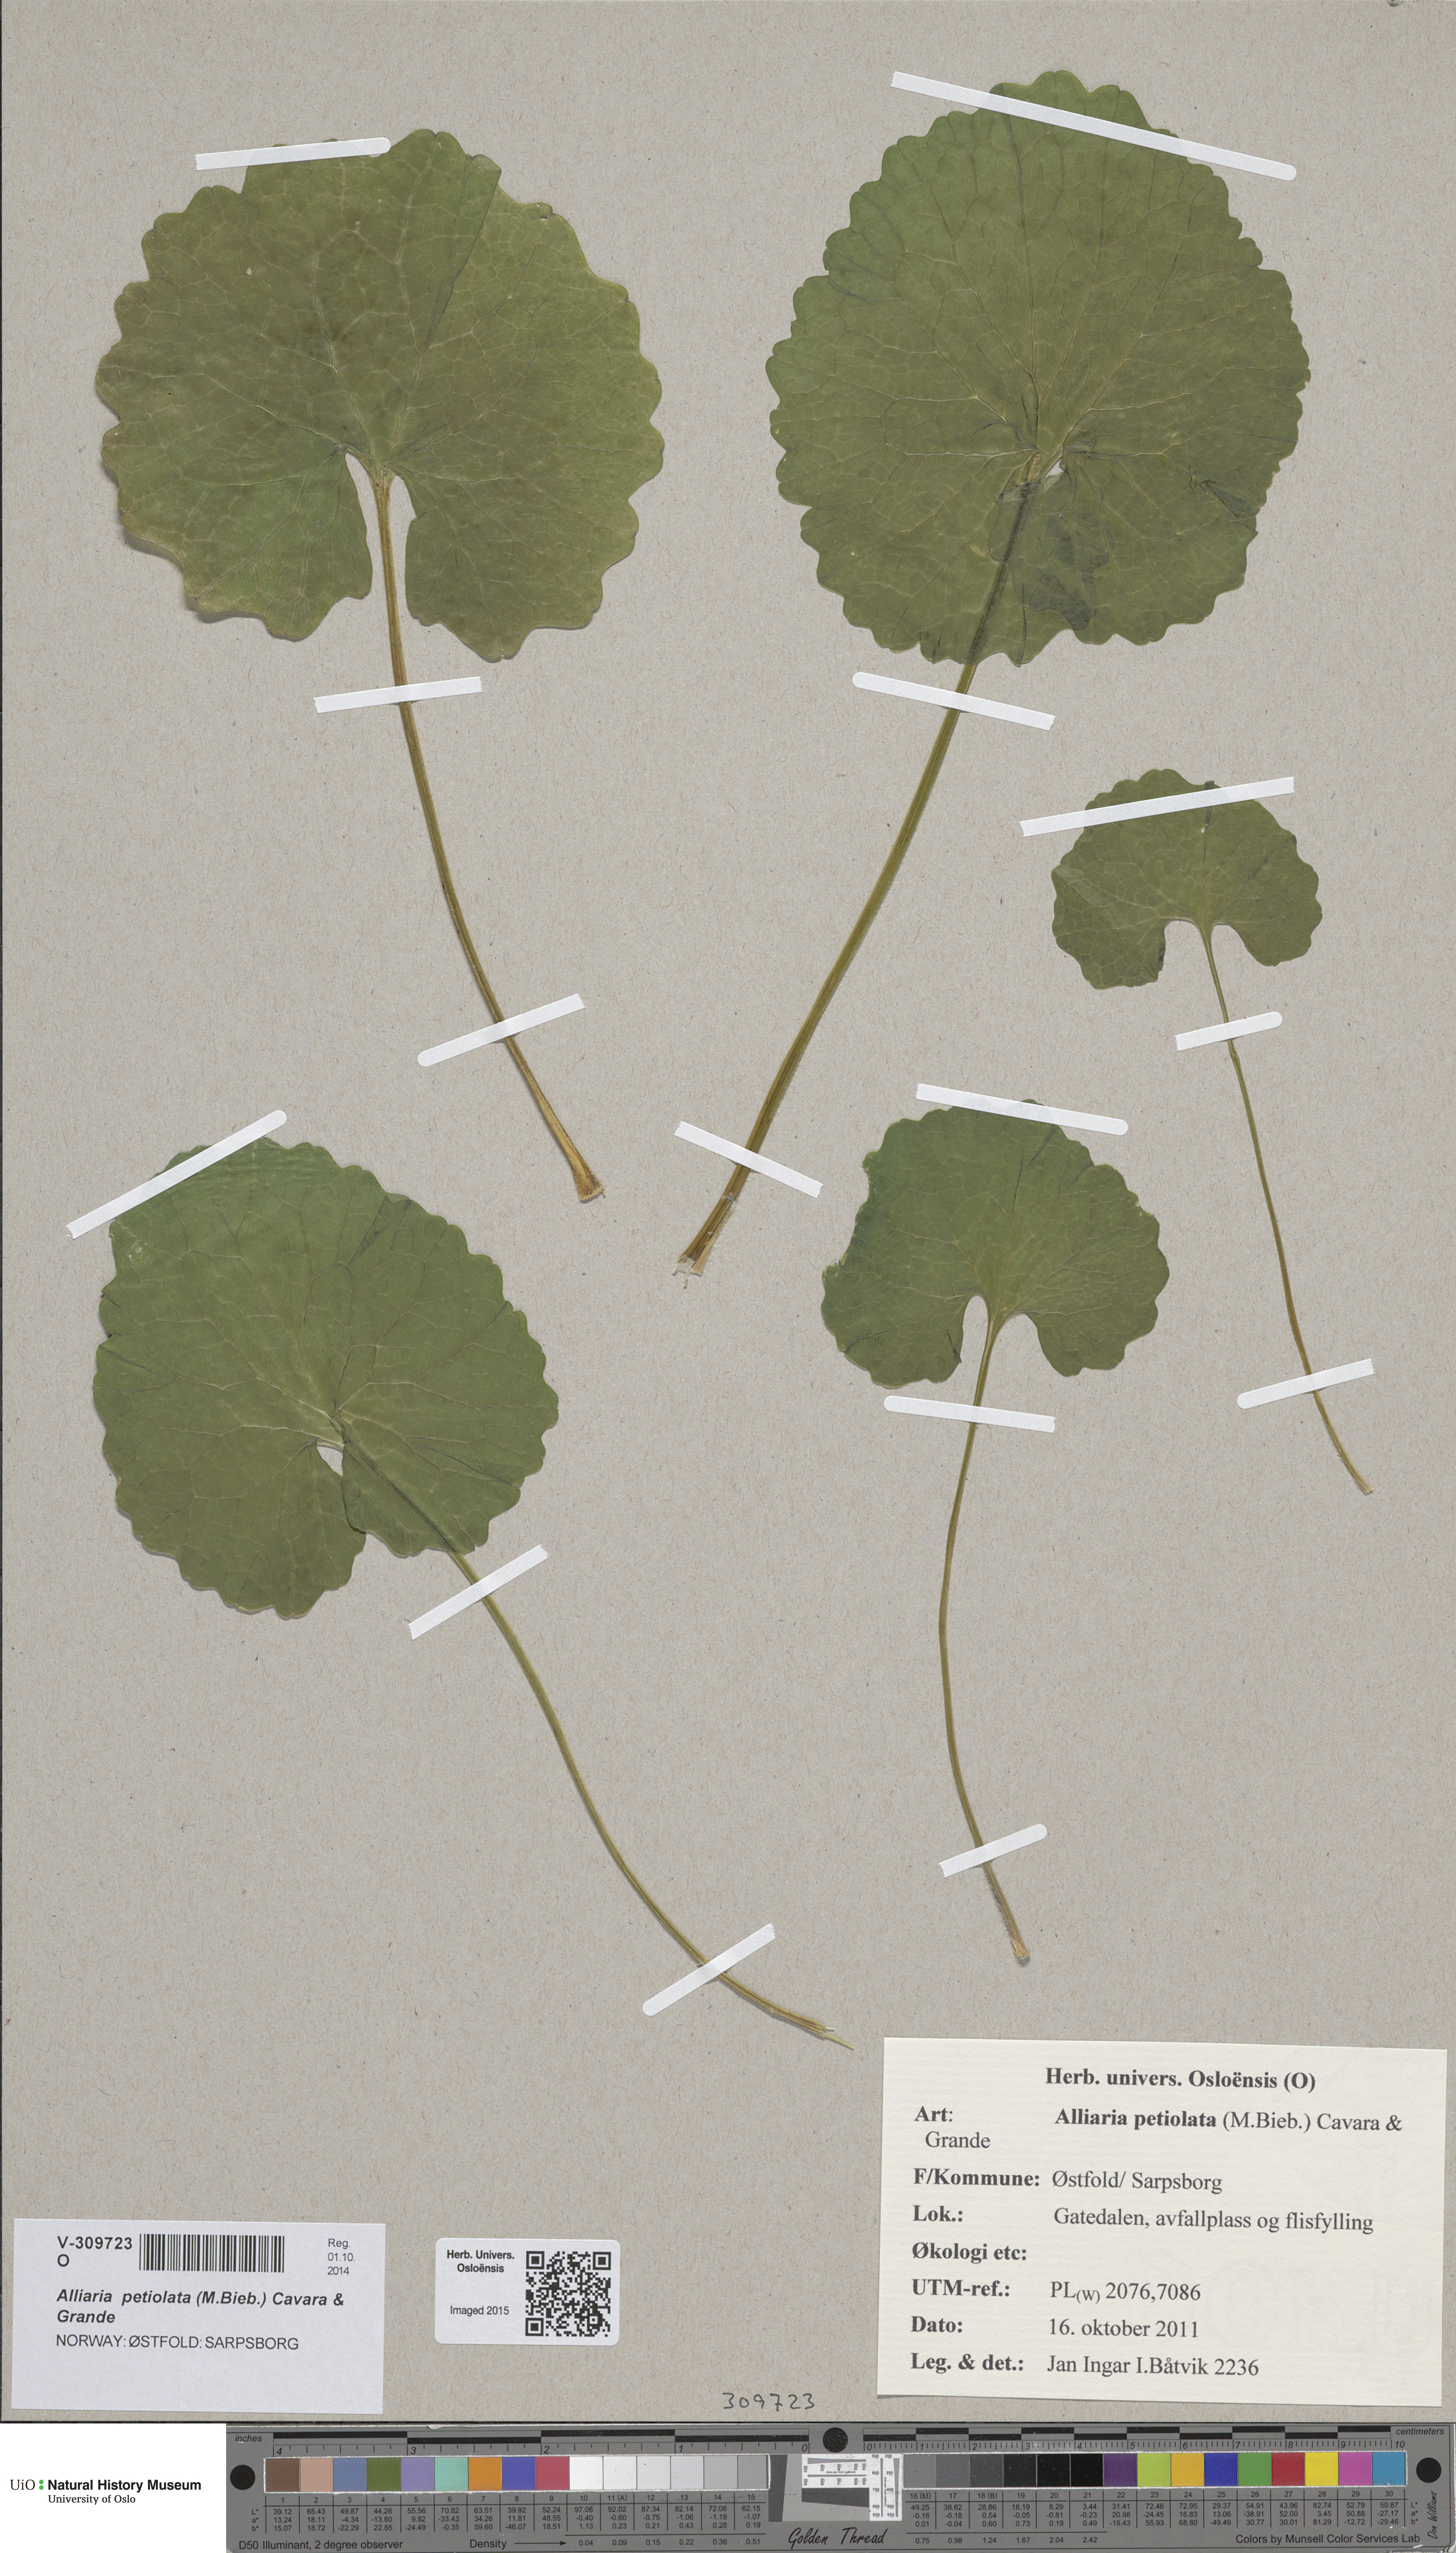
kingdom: Plantae
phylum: Tracheophyta
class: Magnoliopsida
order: Brassicales
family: Brassicaceae
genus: Alliaria
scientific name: Alliaria petiolata
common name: Garlic mustard
